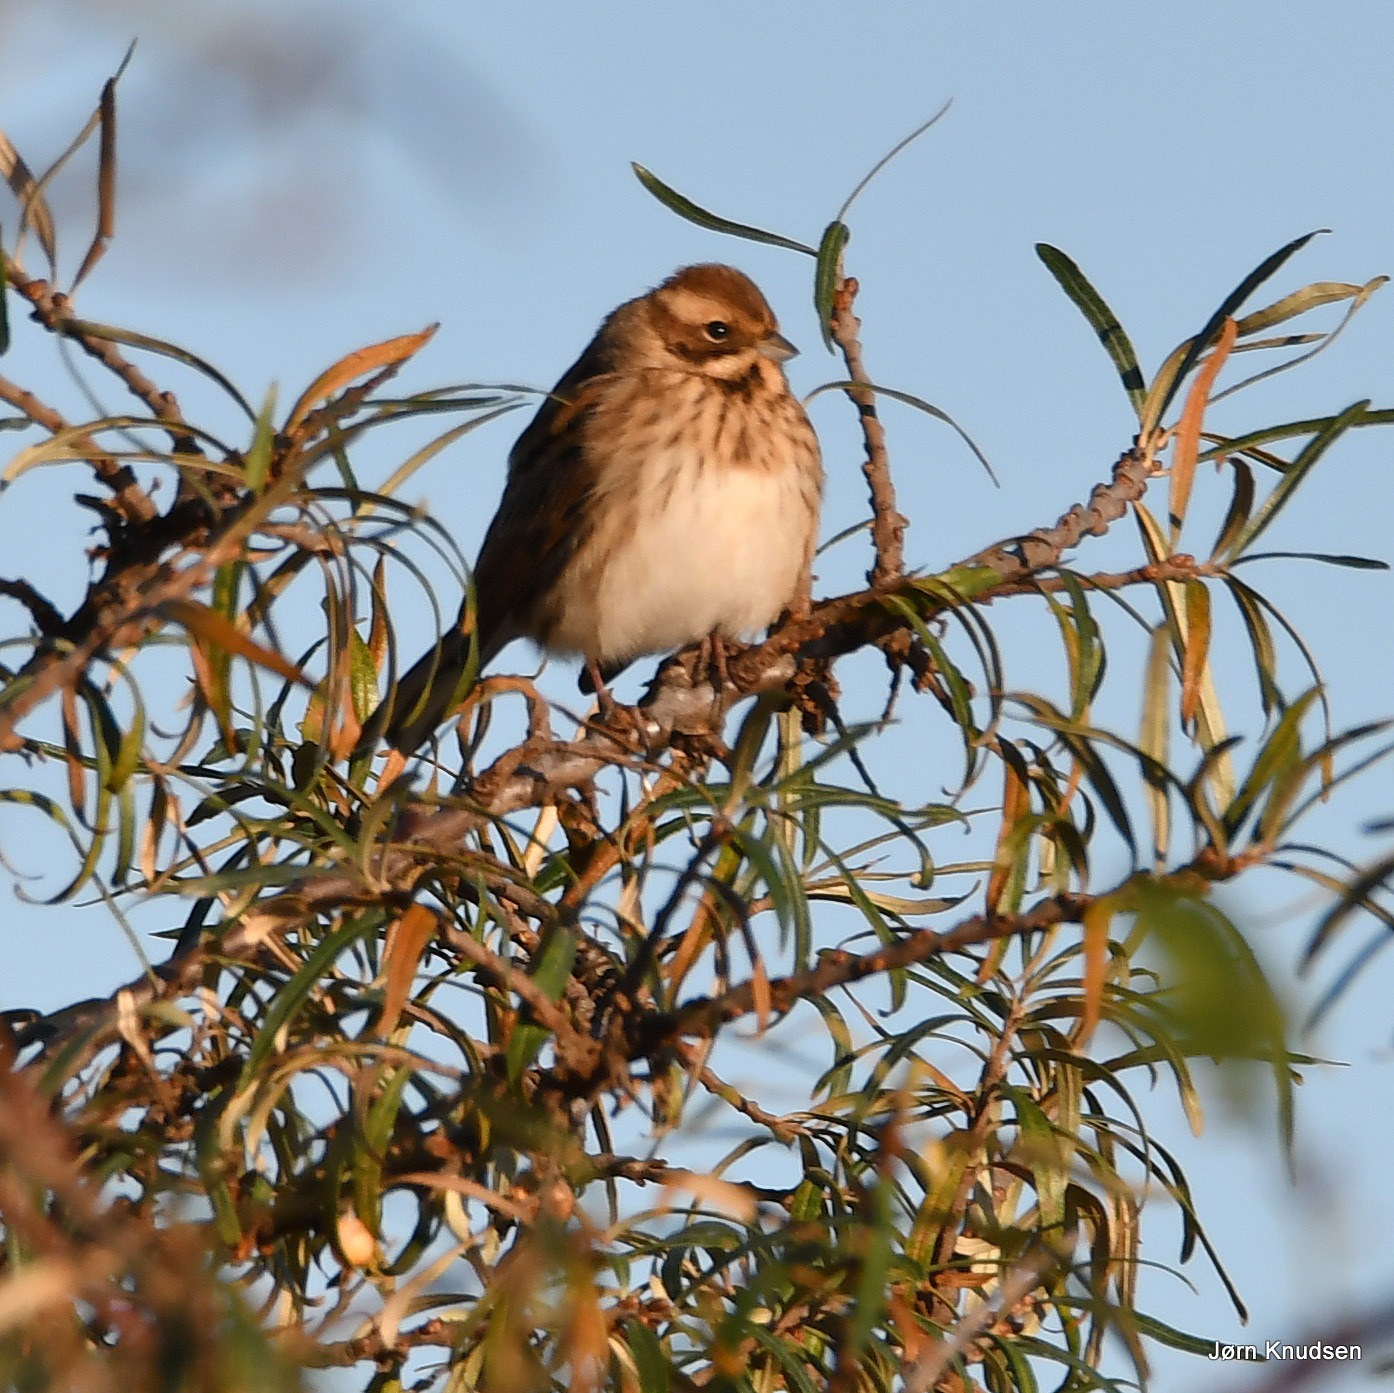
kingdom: Animalia
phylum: Chordata
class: Aves
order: Passeriformes
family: Emberizidae
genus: Emberiza
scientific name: Emberiza schoeniclus
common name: Rørspurv
